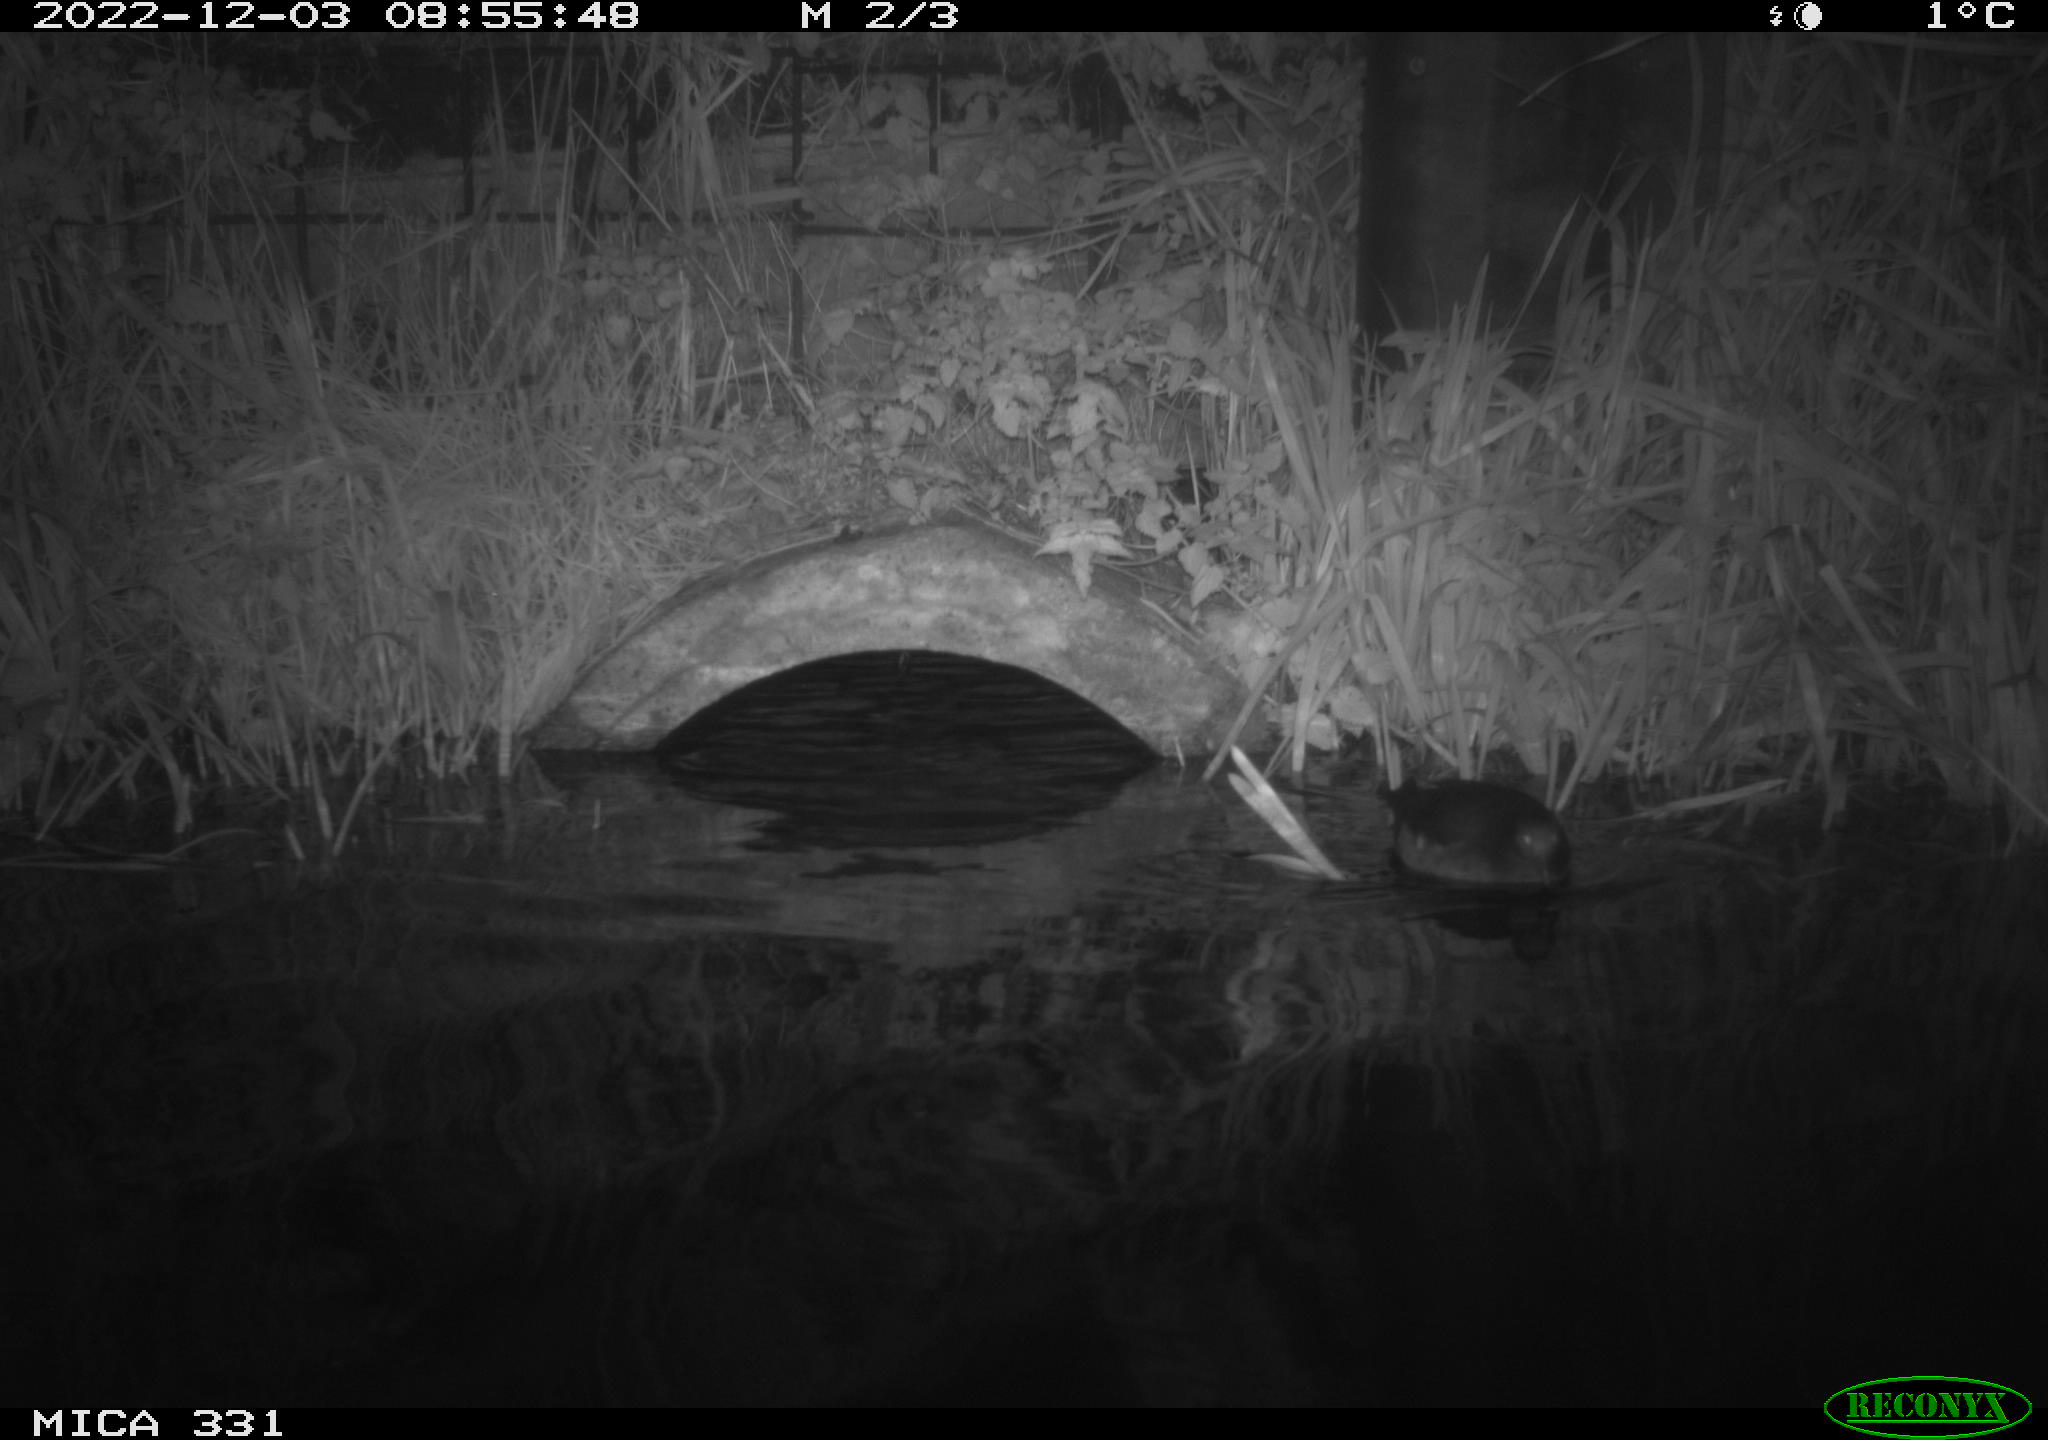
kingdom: Animalia
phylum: Chordata
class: Aves
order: Gruiformes
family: Rallidae
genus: Gallinula
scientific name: Gallinula chloropus
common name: Common moorhen
